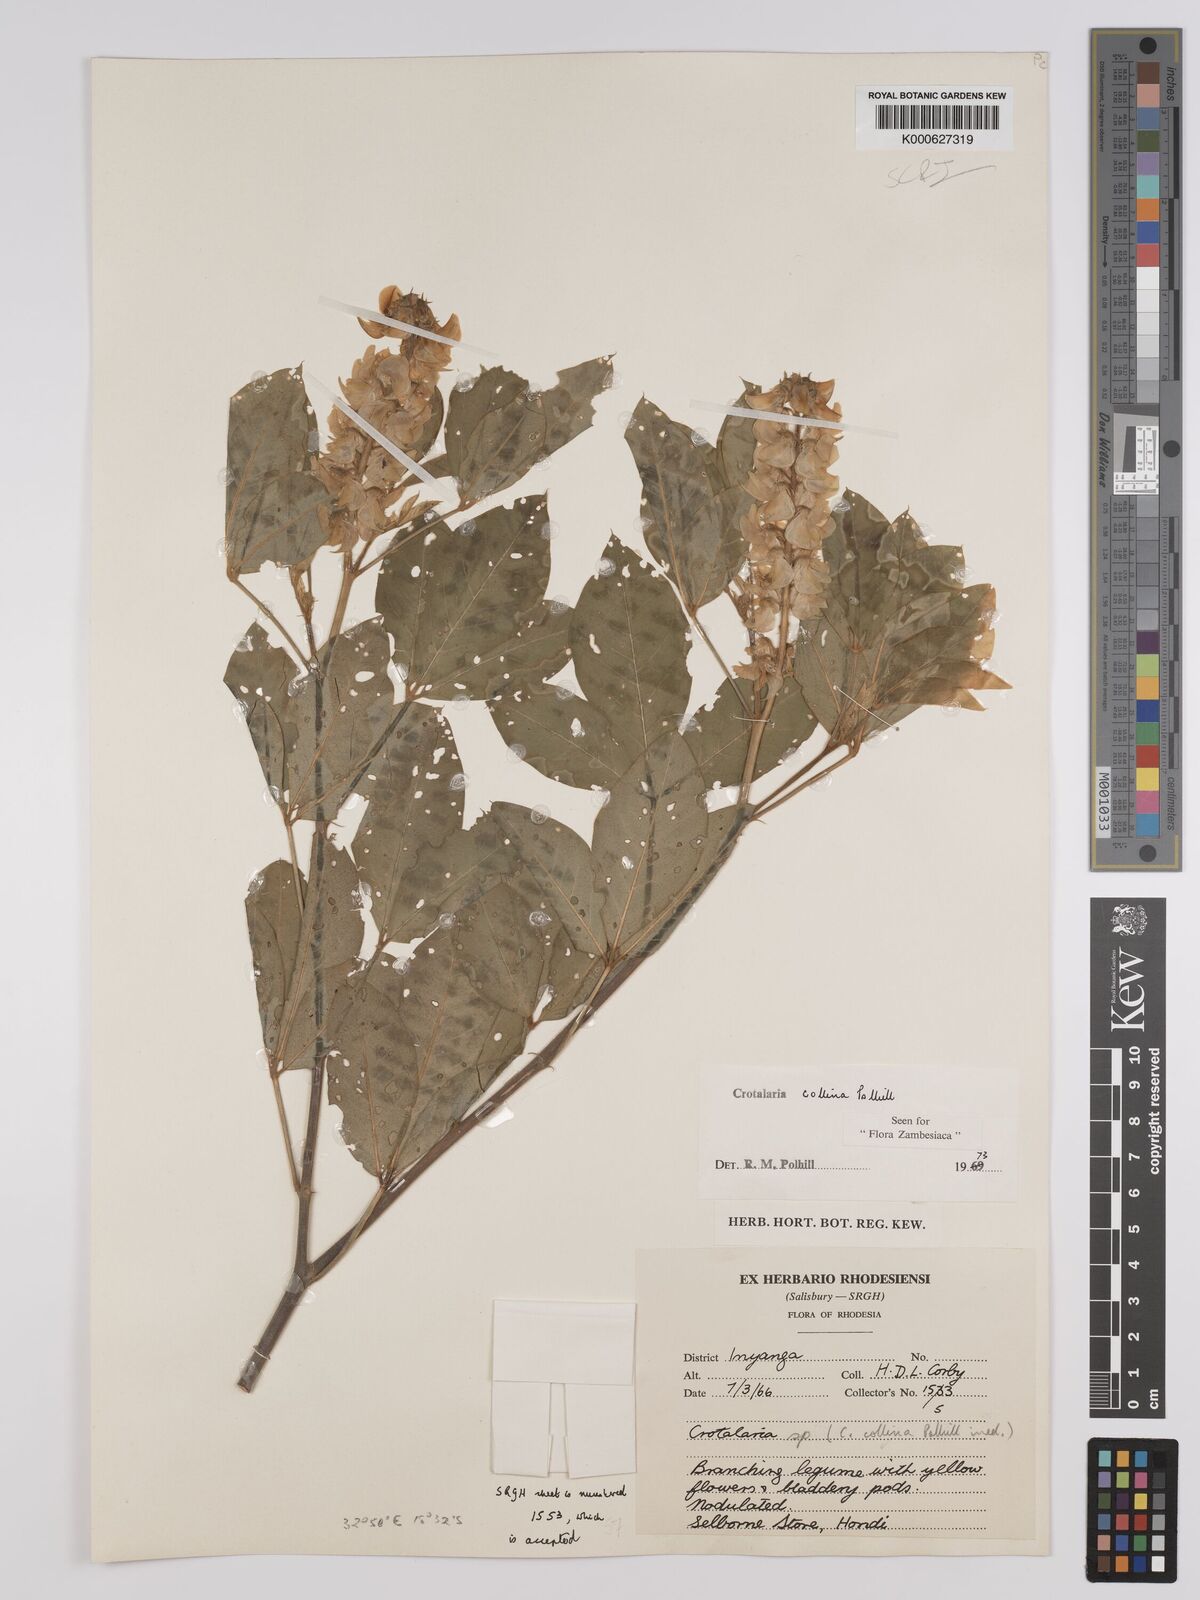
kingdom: Plantae
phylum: Tracheophyta
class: Magnoliopsida
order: Fabales
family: Fabaceae
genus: Crotalaria
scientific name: Crotalaria collina
